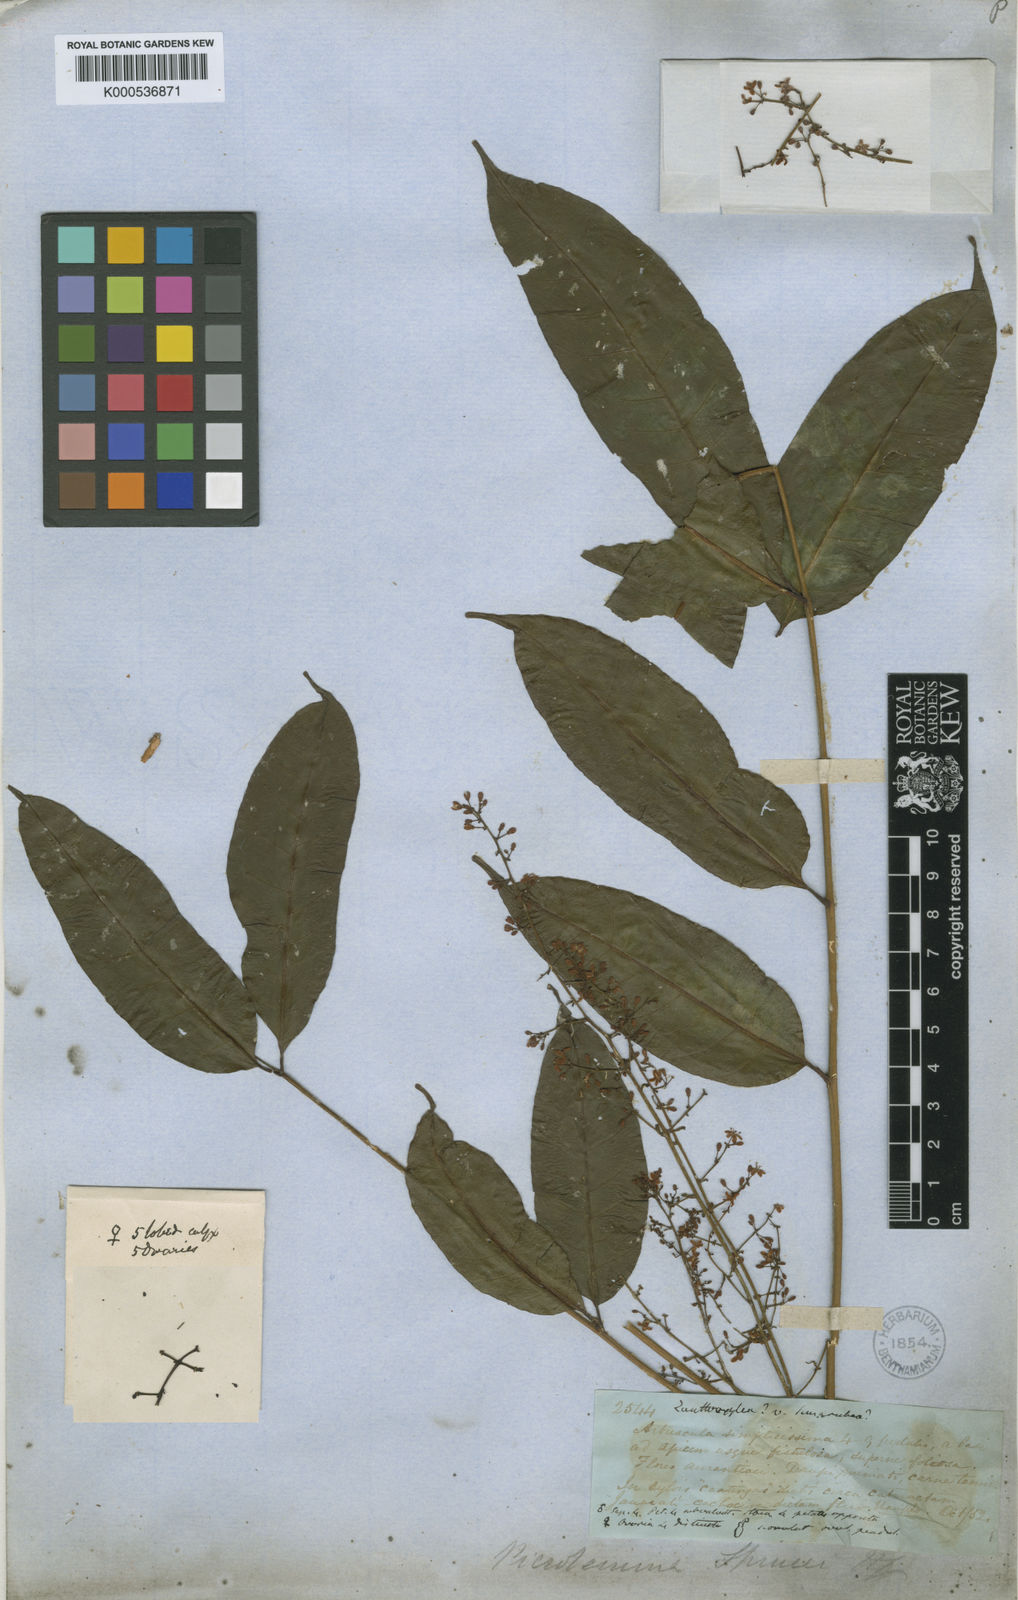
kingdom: Plantae
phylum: Tracheophyta
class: Magnoliopsida
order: Sapindales
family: Simaroubaceae
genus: Picrolemma
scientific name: Picrolemma sprucei
